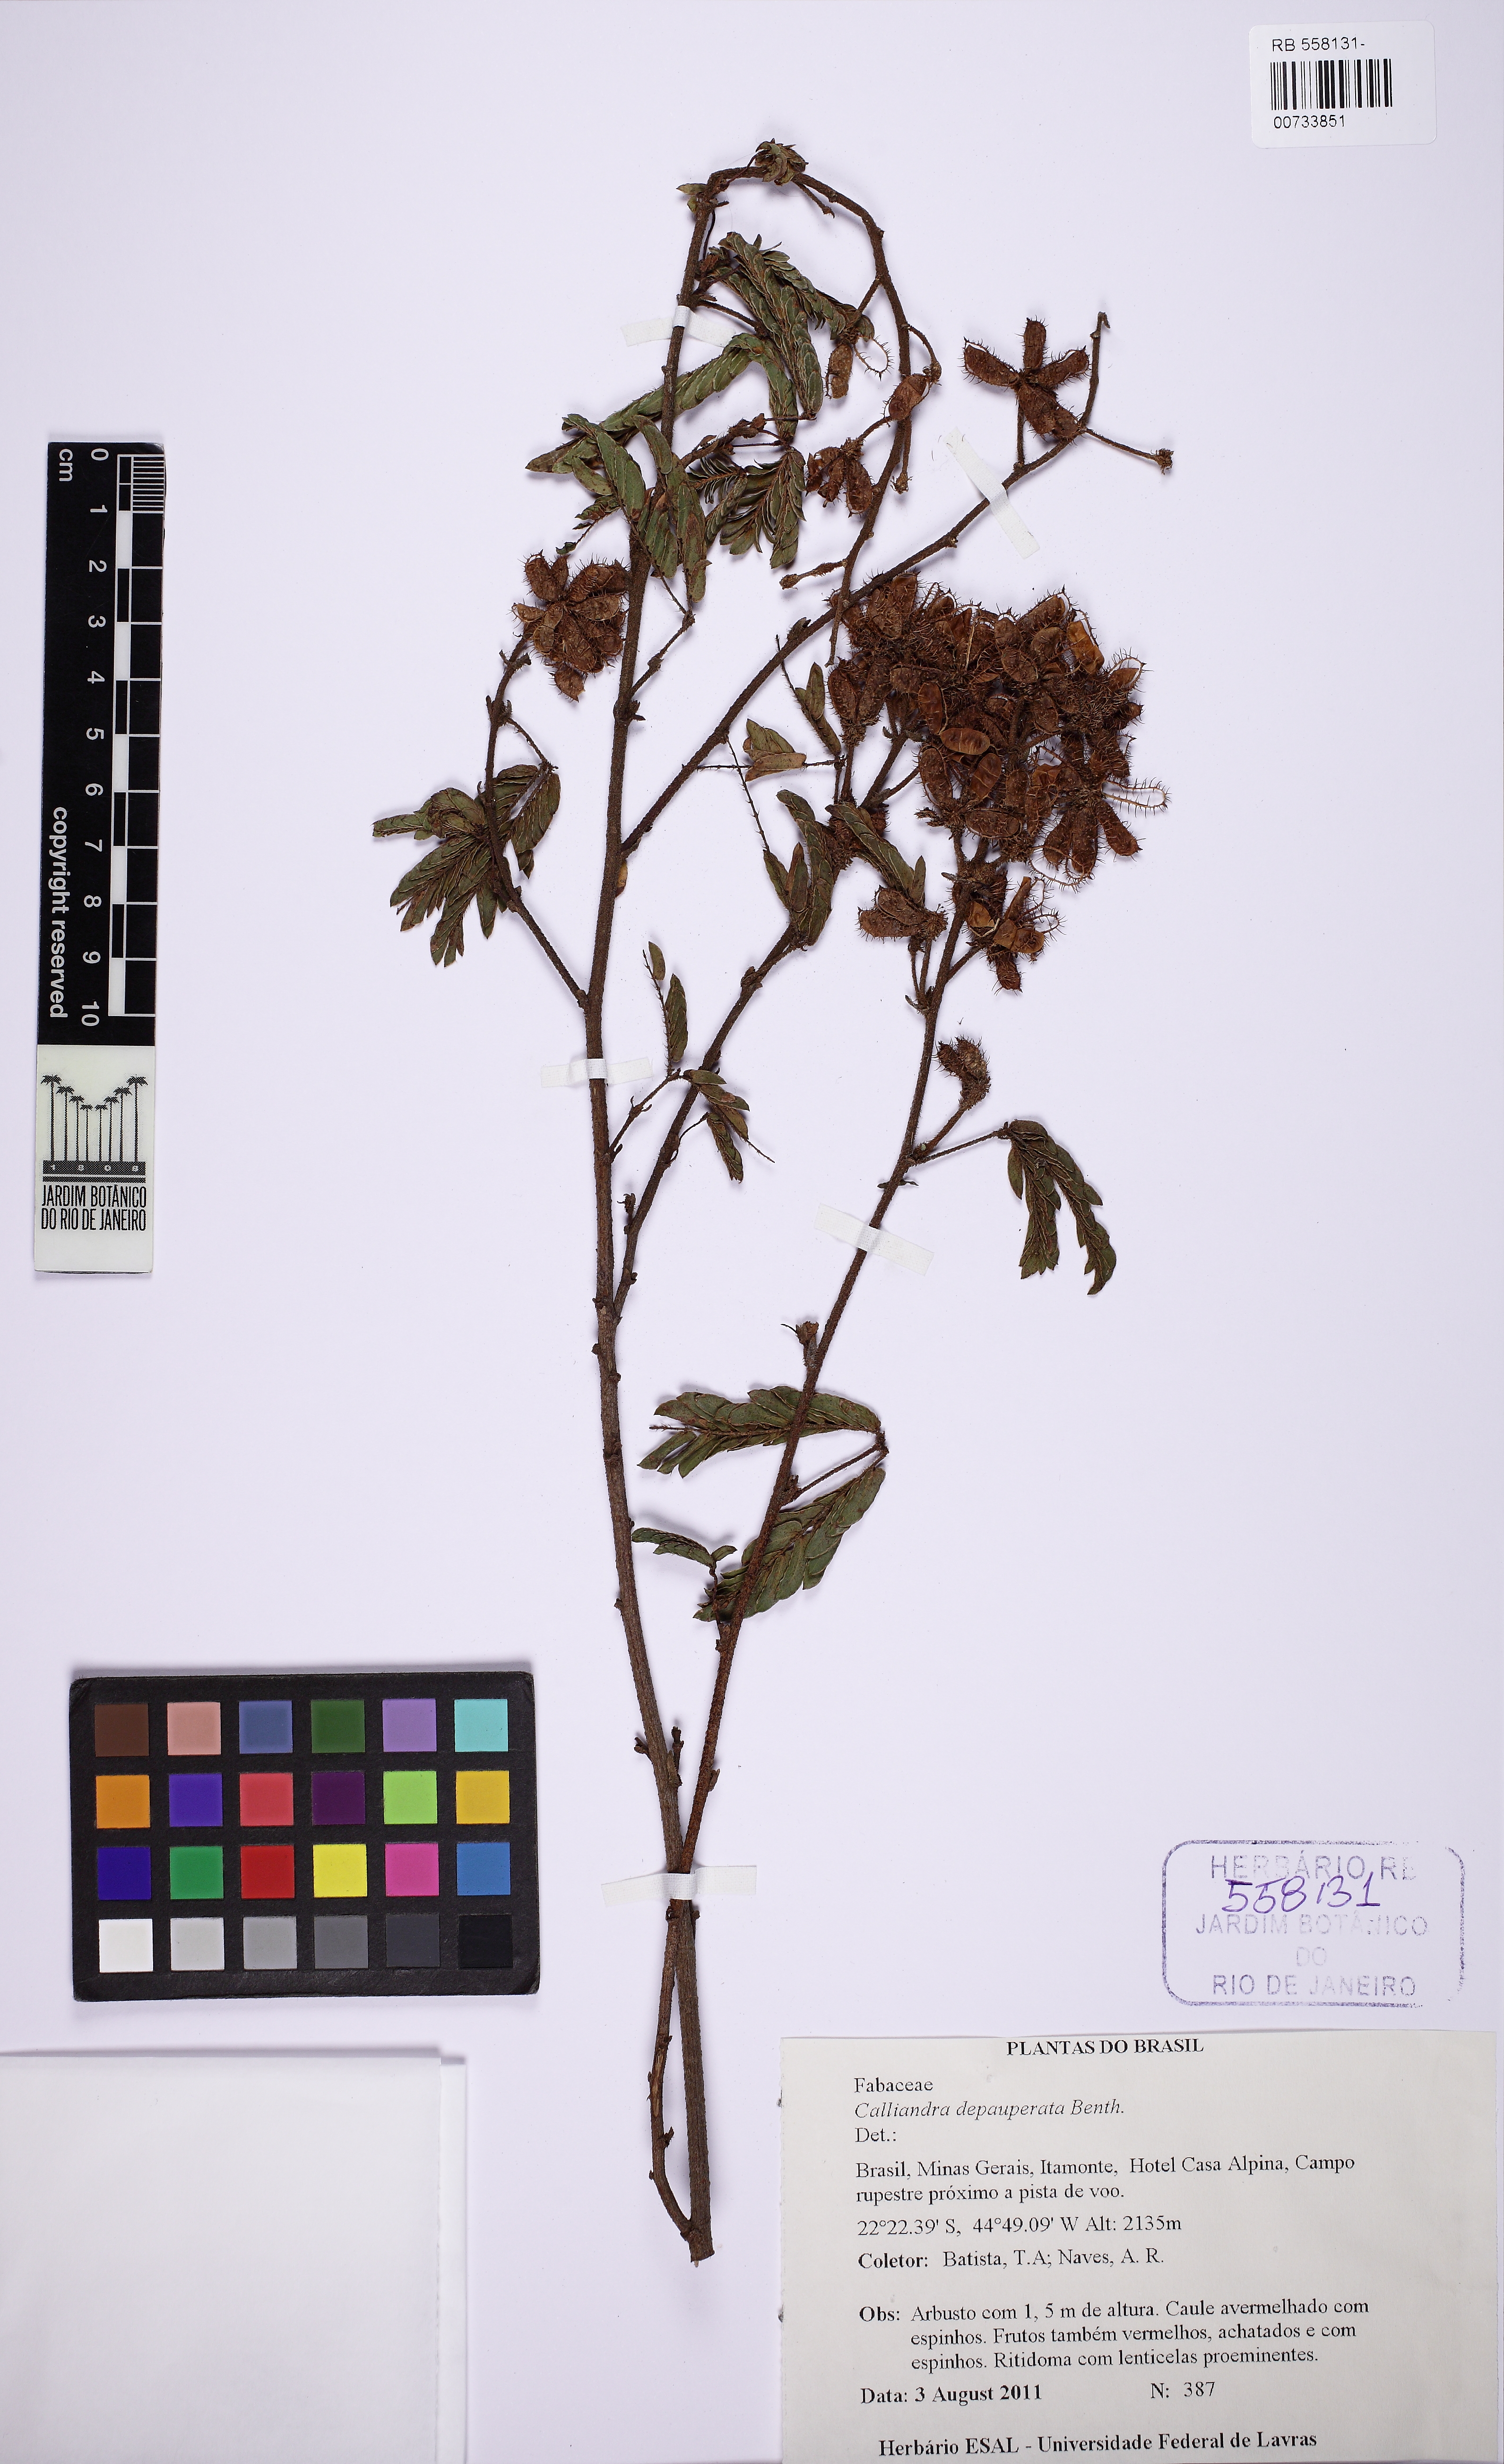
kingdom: Plantae
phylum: Tracheophyta
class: Magnoliopsida
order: Fabales
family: Fabaceae
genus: Calliandra
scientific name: Calliandra depauperata
